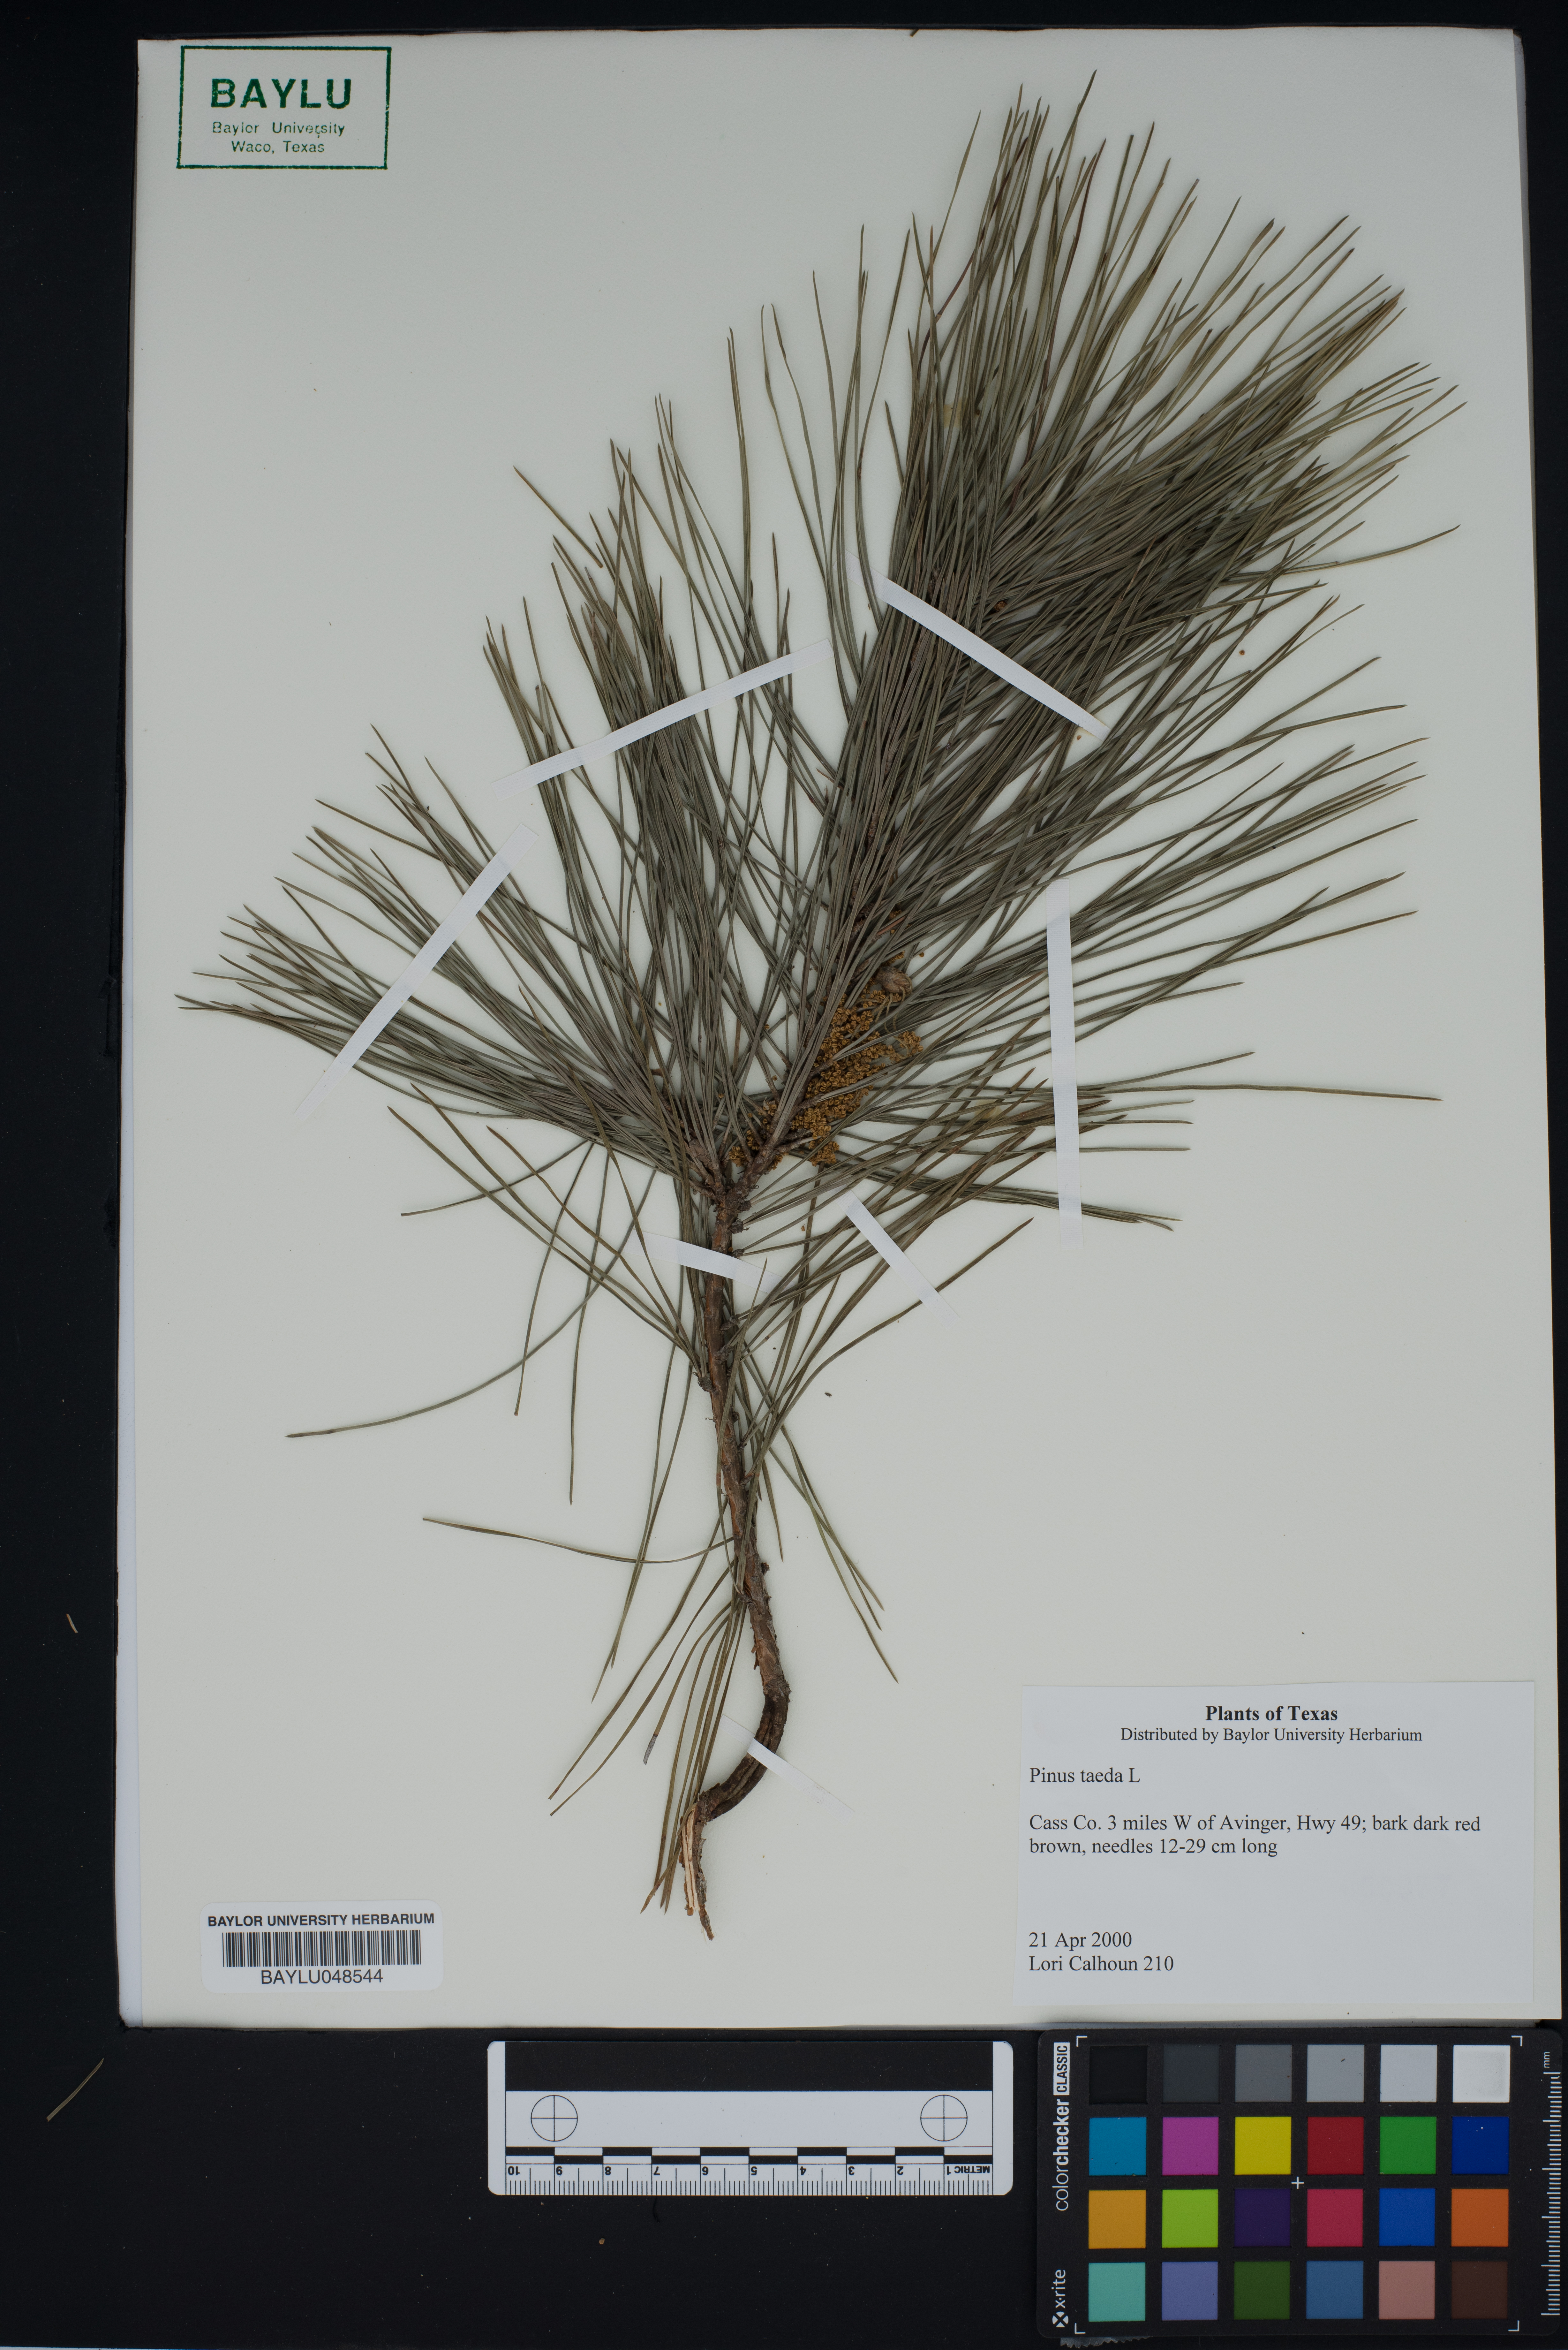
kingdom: Plantae
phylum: Tracheophyta
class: Pinopsida
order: Pinales
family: Pinaceae
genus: Pinus
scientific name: Pinus taeda
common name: Loblolly pine
